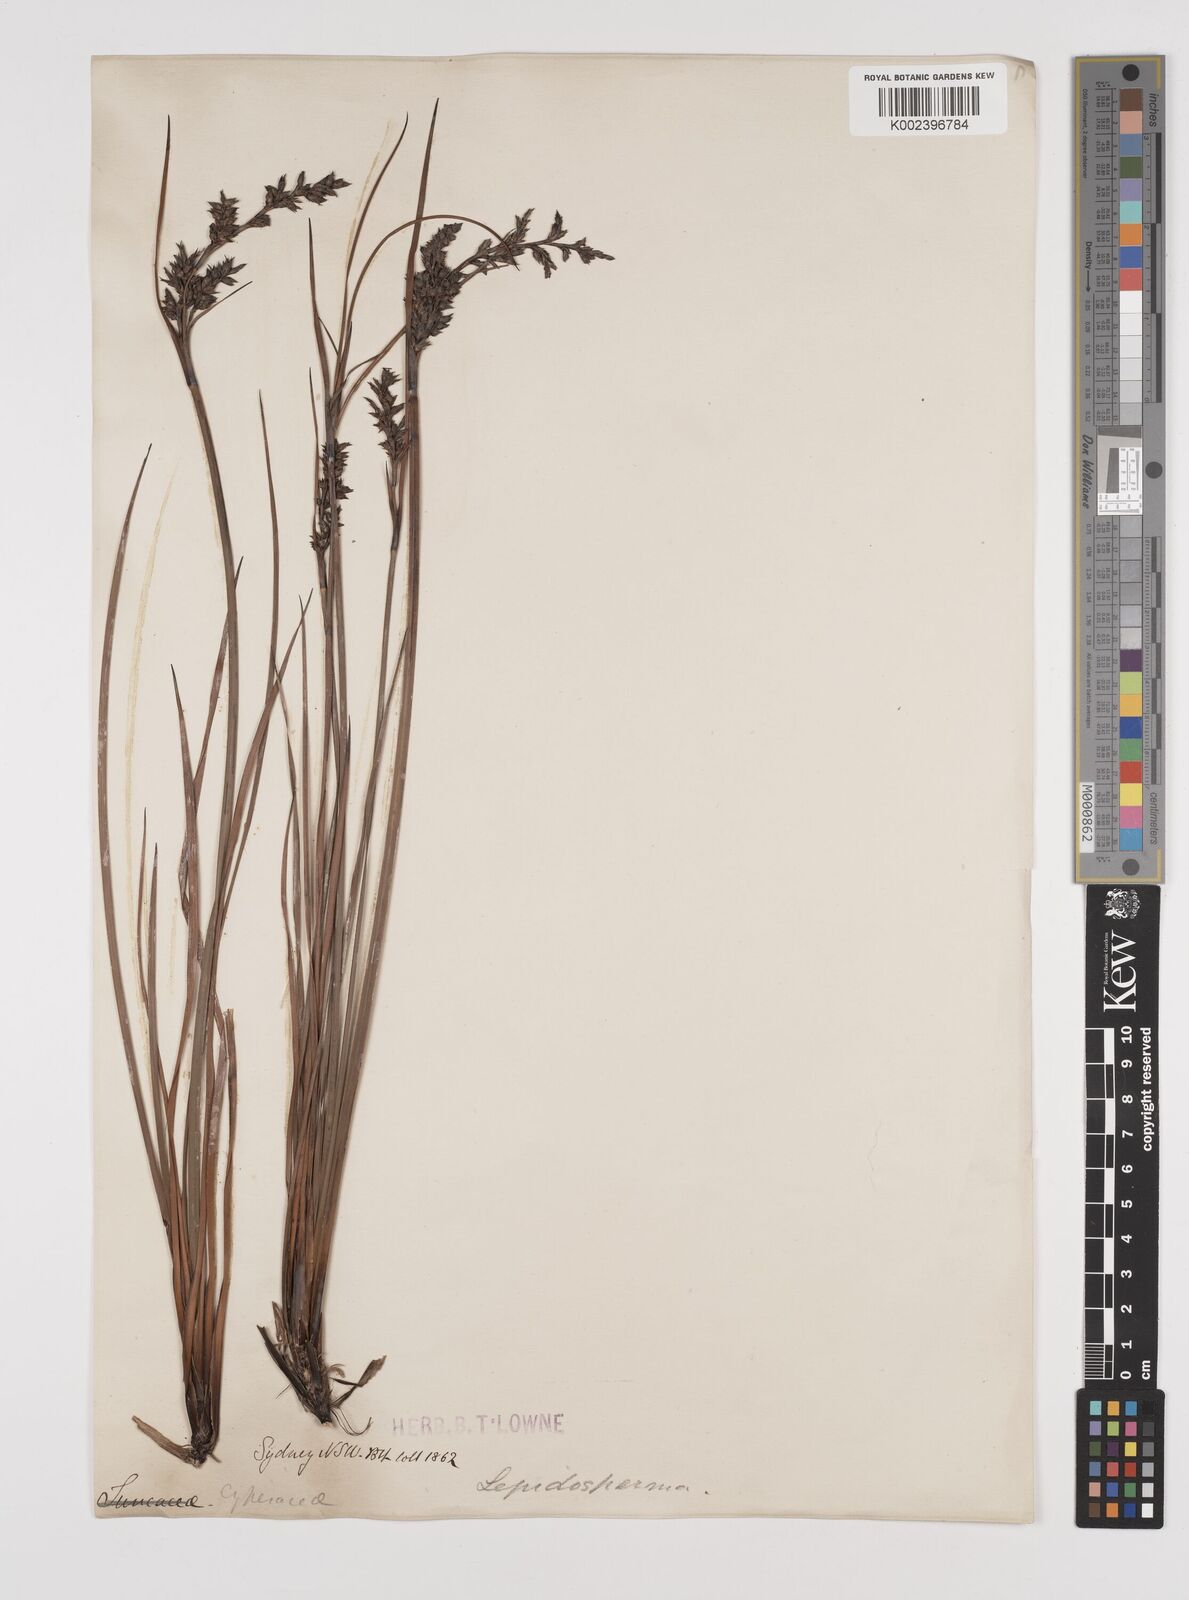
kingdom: Plantae
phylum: Tracheophyta
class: Liliopsida
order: Poales
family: Cyperaceae
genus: Lepidosperma
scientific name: Lepidosperma laterale
